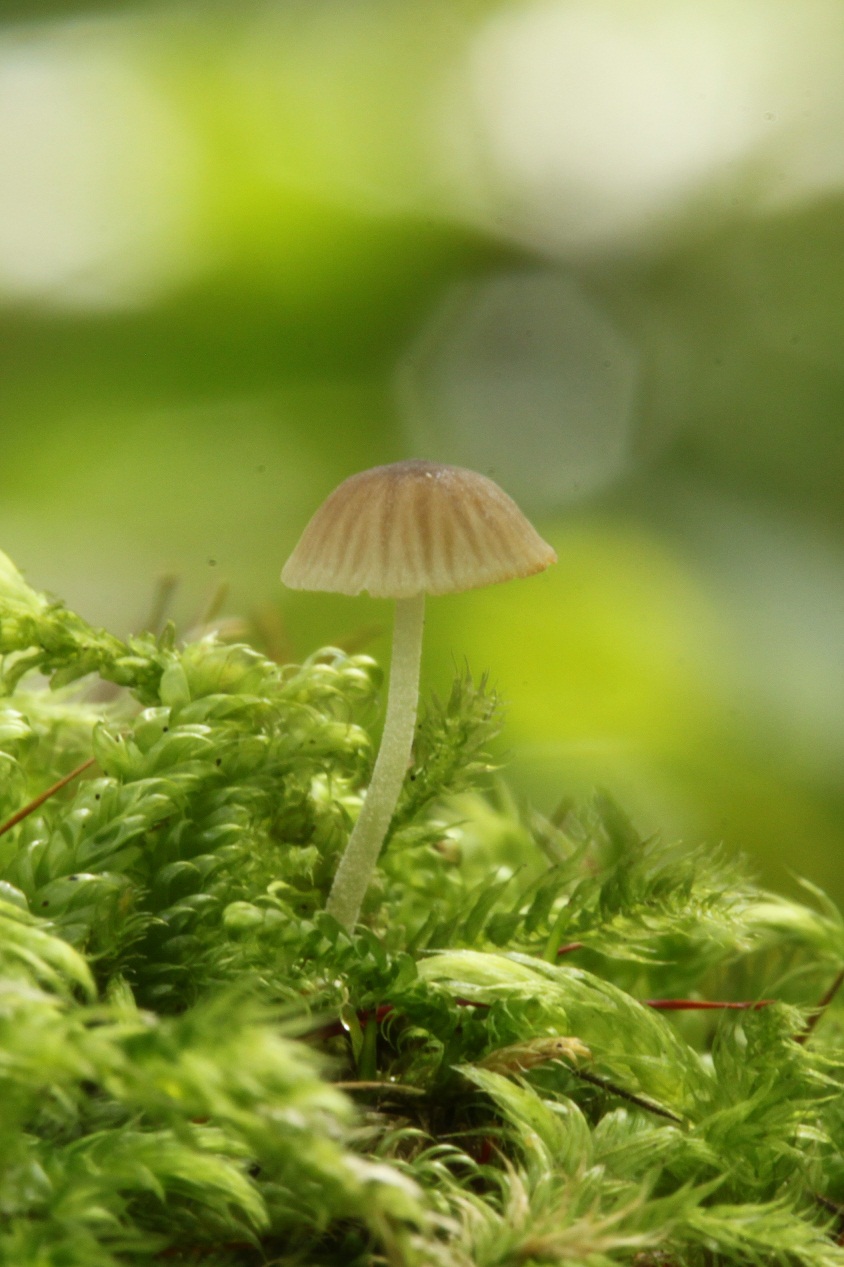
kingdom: Fungi
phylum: Basidiomycota
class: Agaricomycetes
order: Agaricales
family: Porotheleaceae
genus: Phloeomana
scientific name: Phloeomana hiemalis
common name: sen huesvamp
